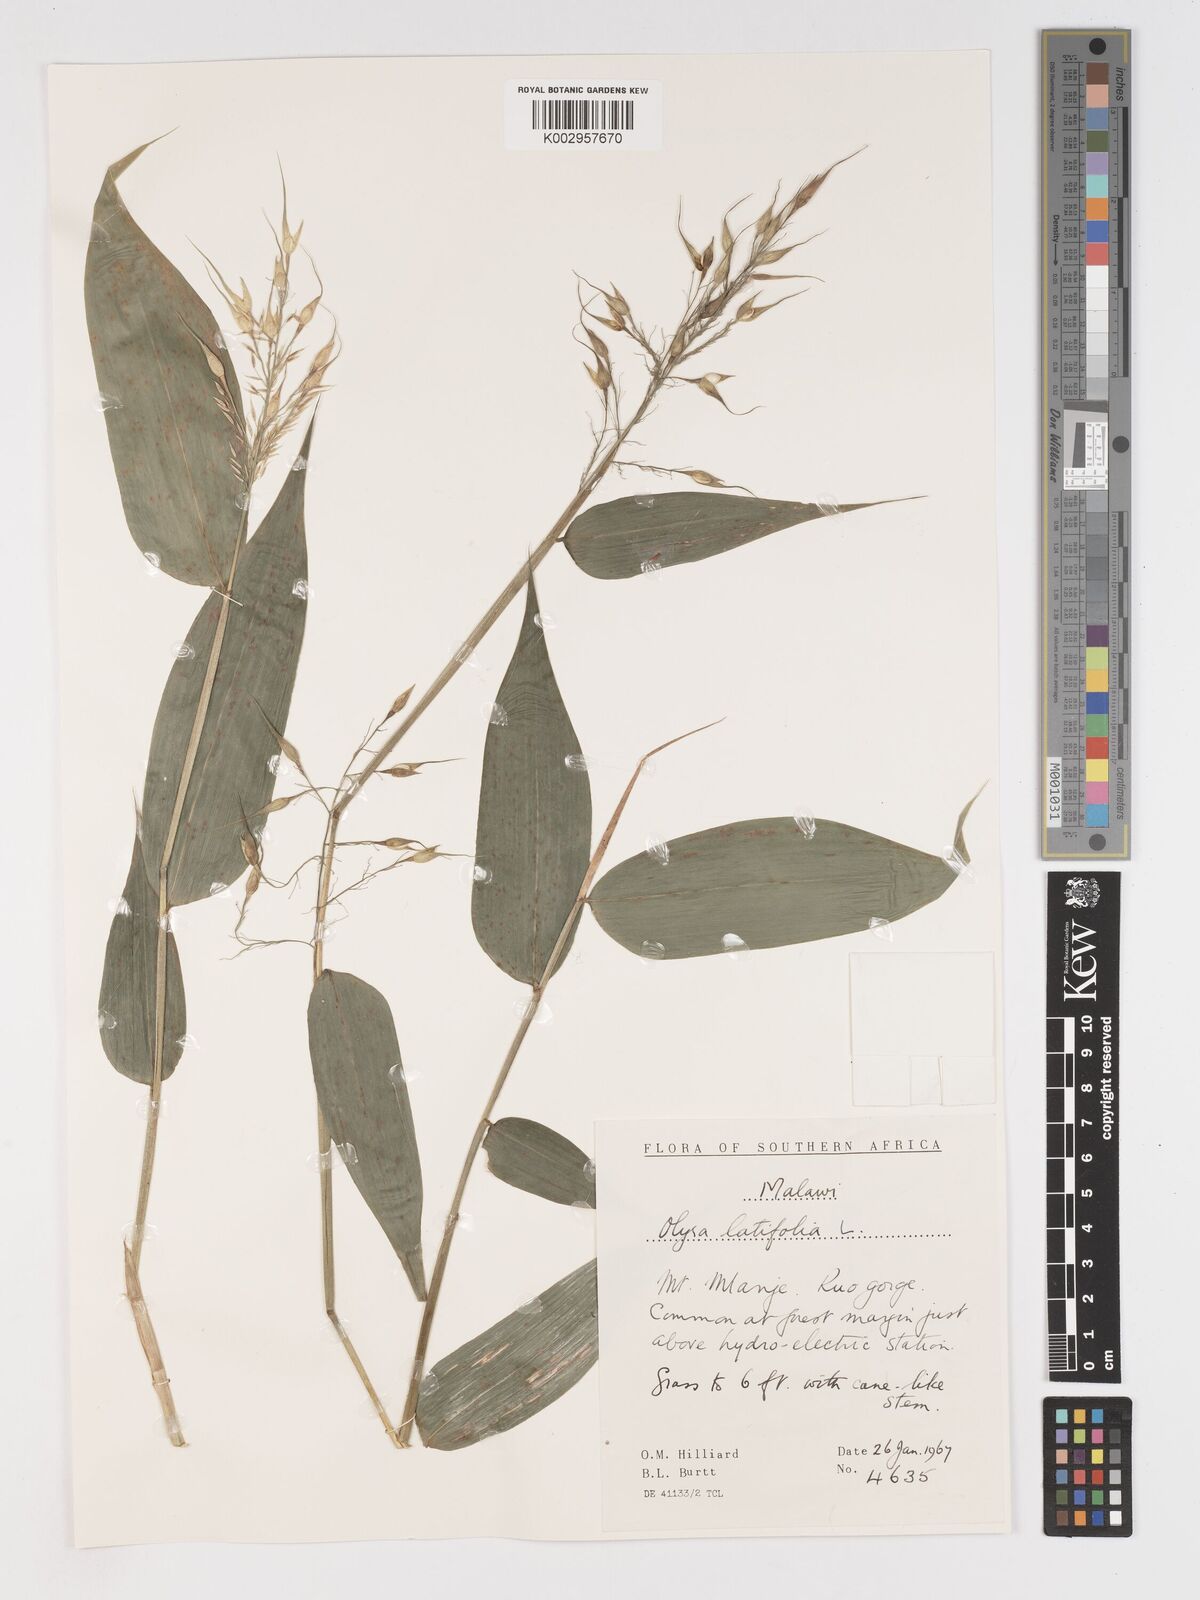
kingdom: Plantae
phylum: Tracheophyta
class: Liliopsida
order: Poales
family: Poaceae
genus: Olyra
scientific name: Olyra latifolia
